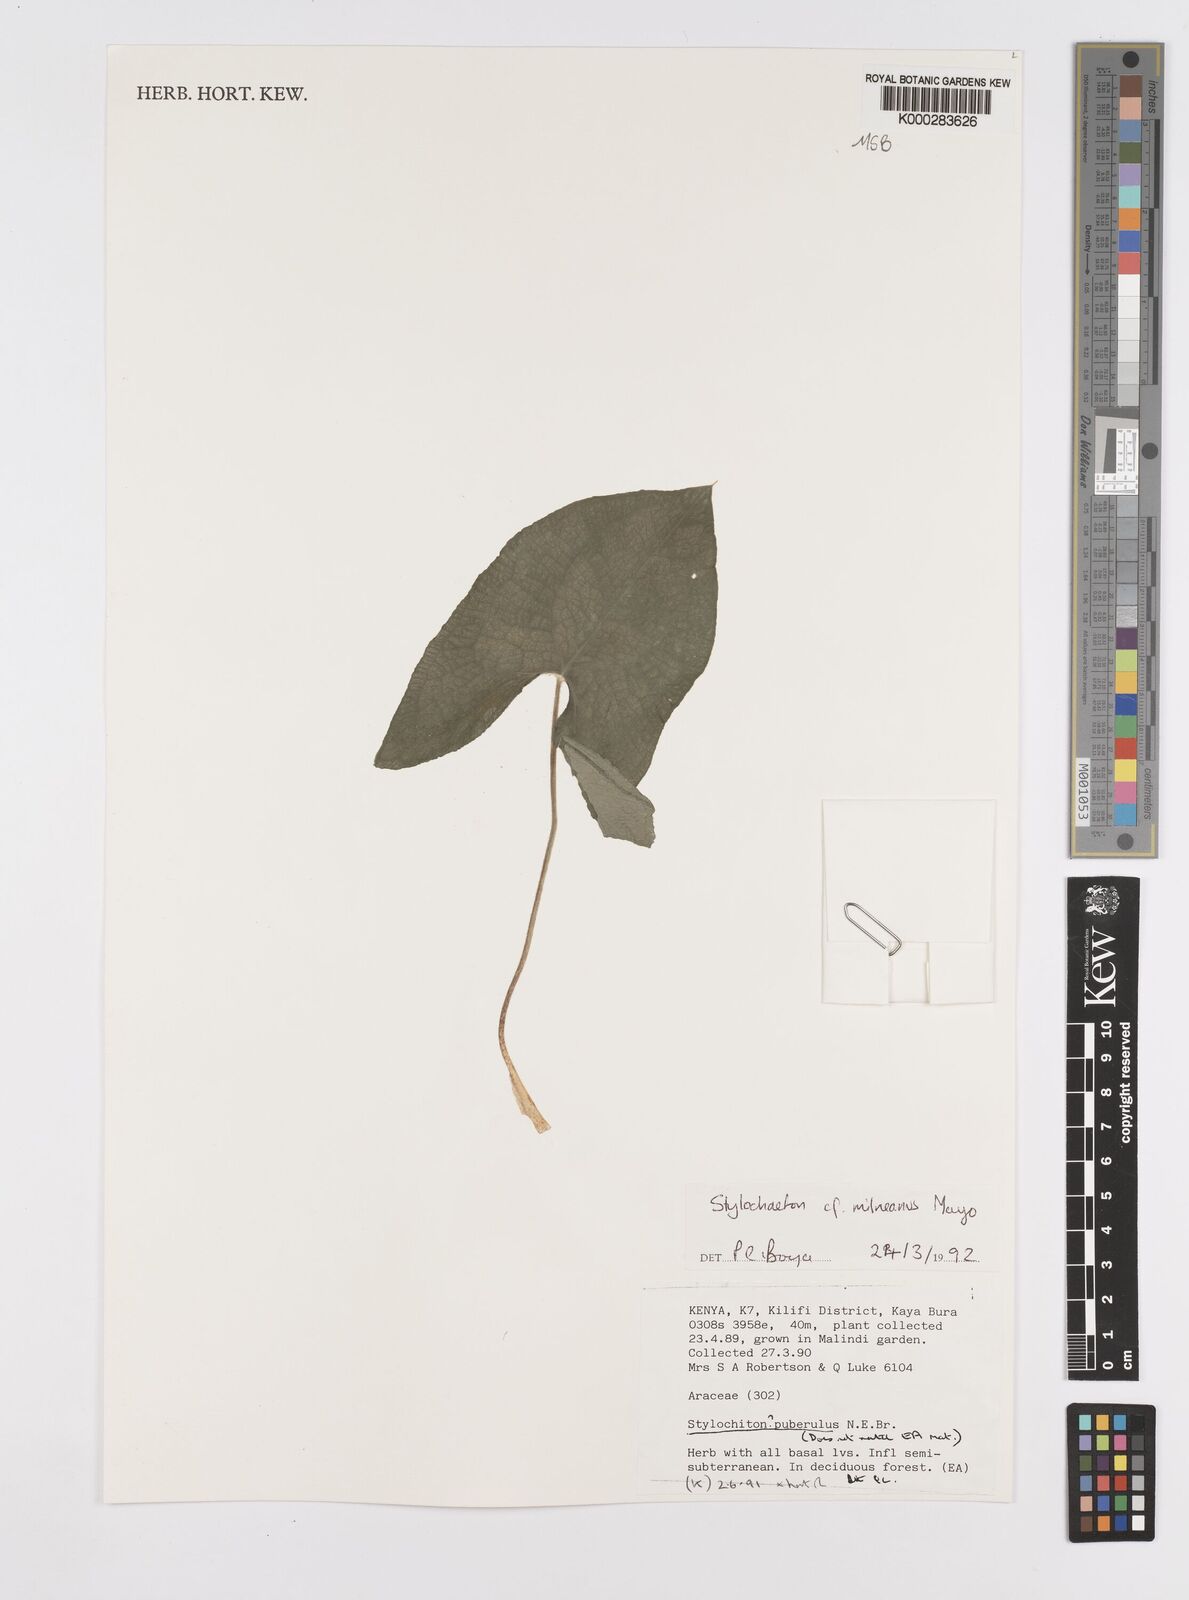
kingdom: Plantae
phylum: Tracheophyta
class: Liliopsida
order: Alismatales
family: Araceae
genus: Stylochaeton
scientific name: Stylochaeton milneanum
